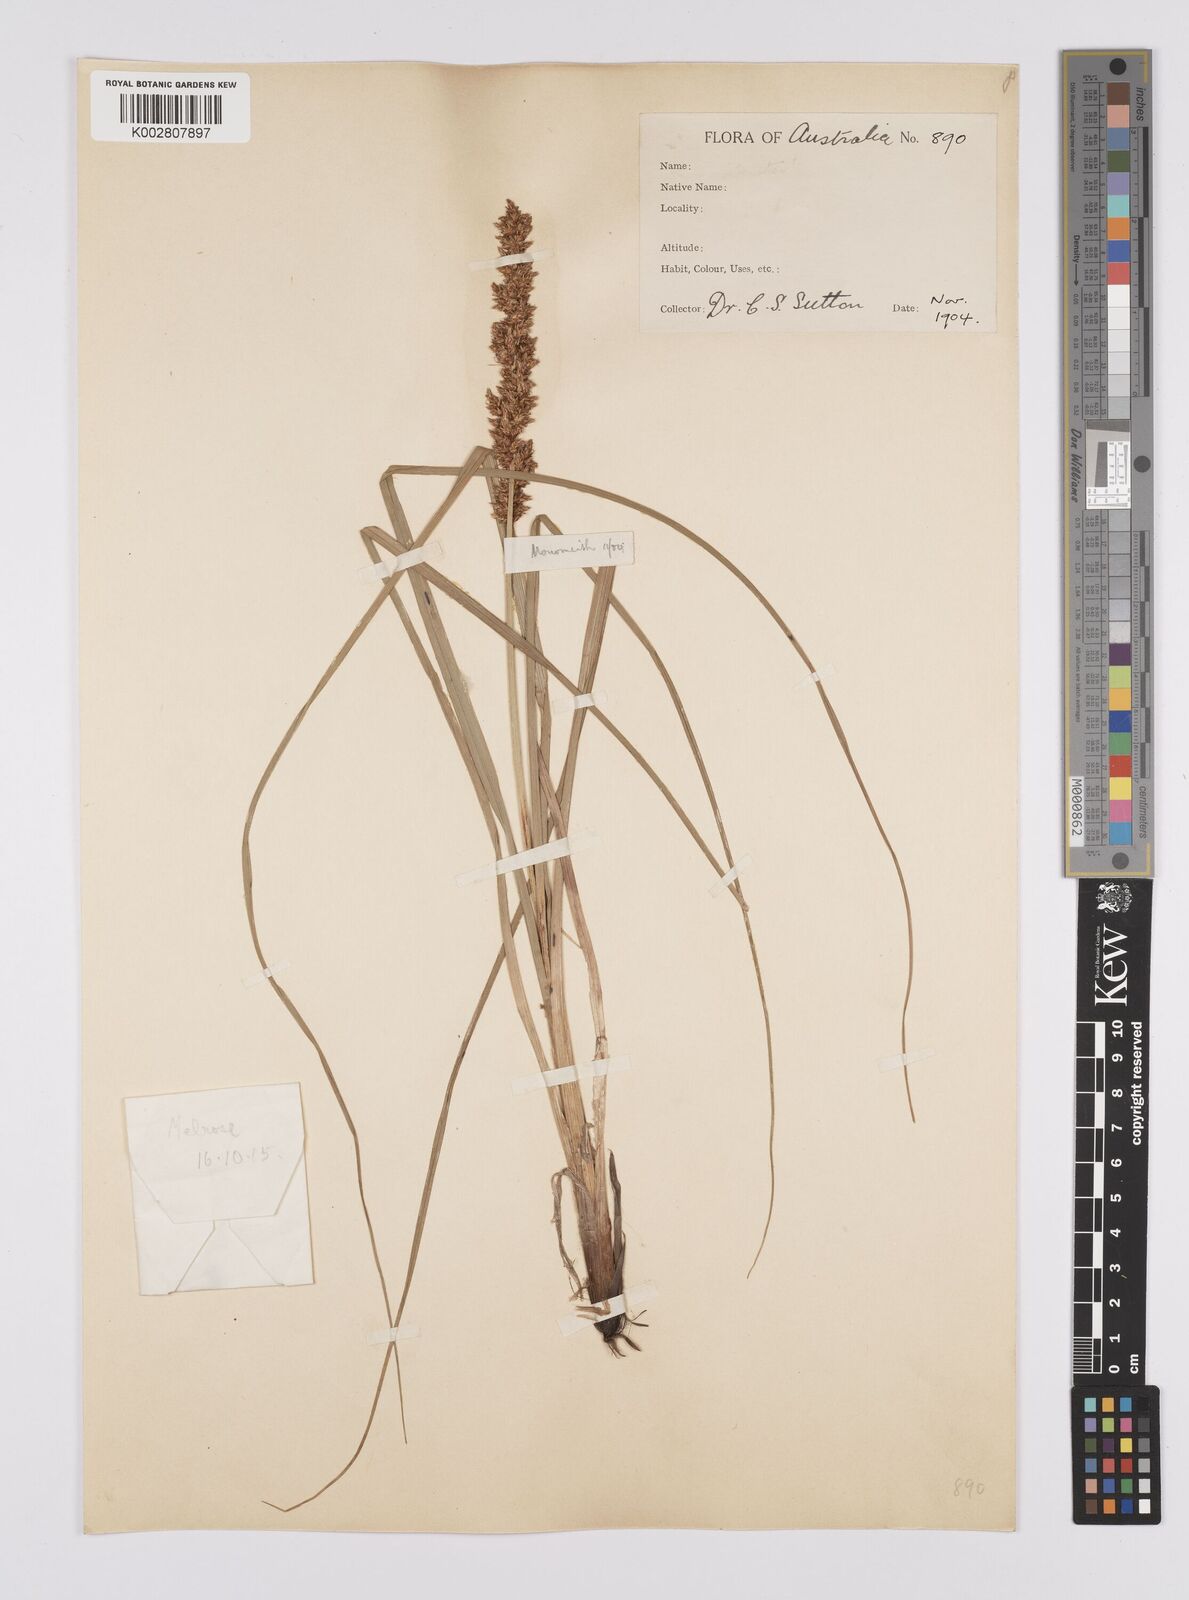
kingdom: Plantae
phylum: Tracheophyta
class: Liliopsida
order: Poales
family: Cyperaceae
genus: Carex
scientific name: Carex appressa
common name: Tussock sedge
